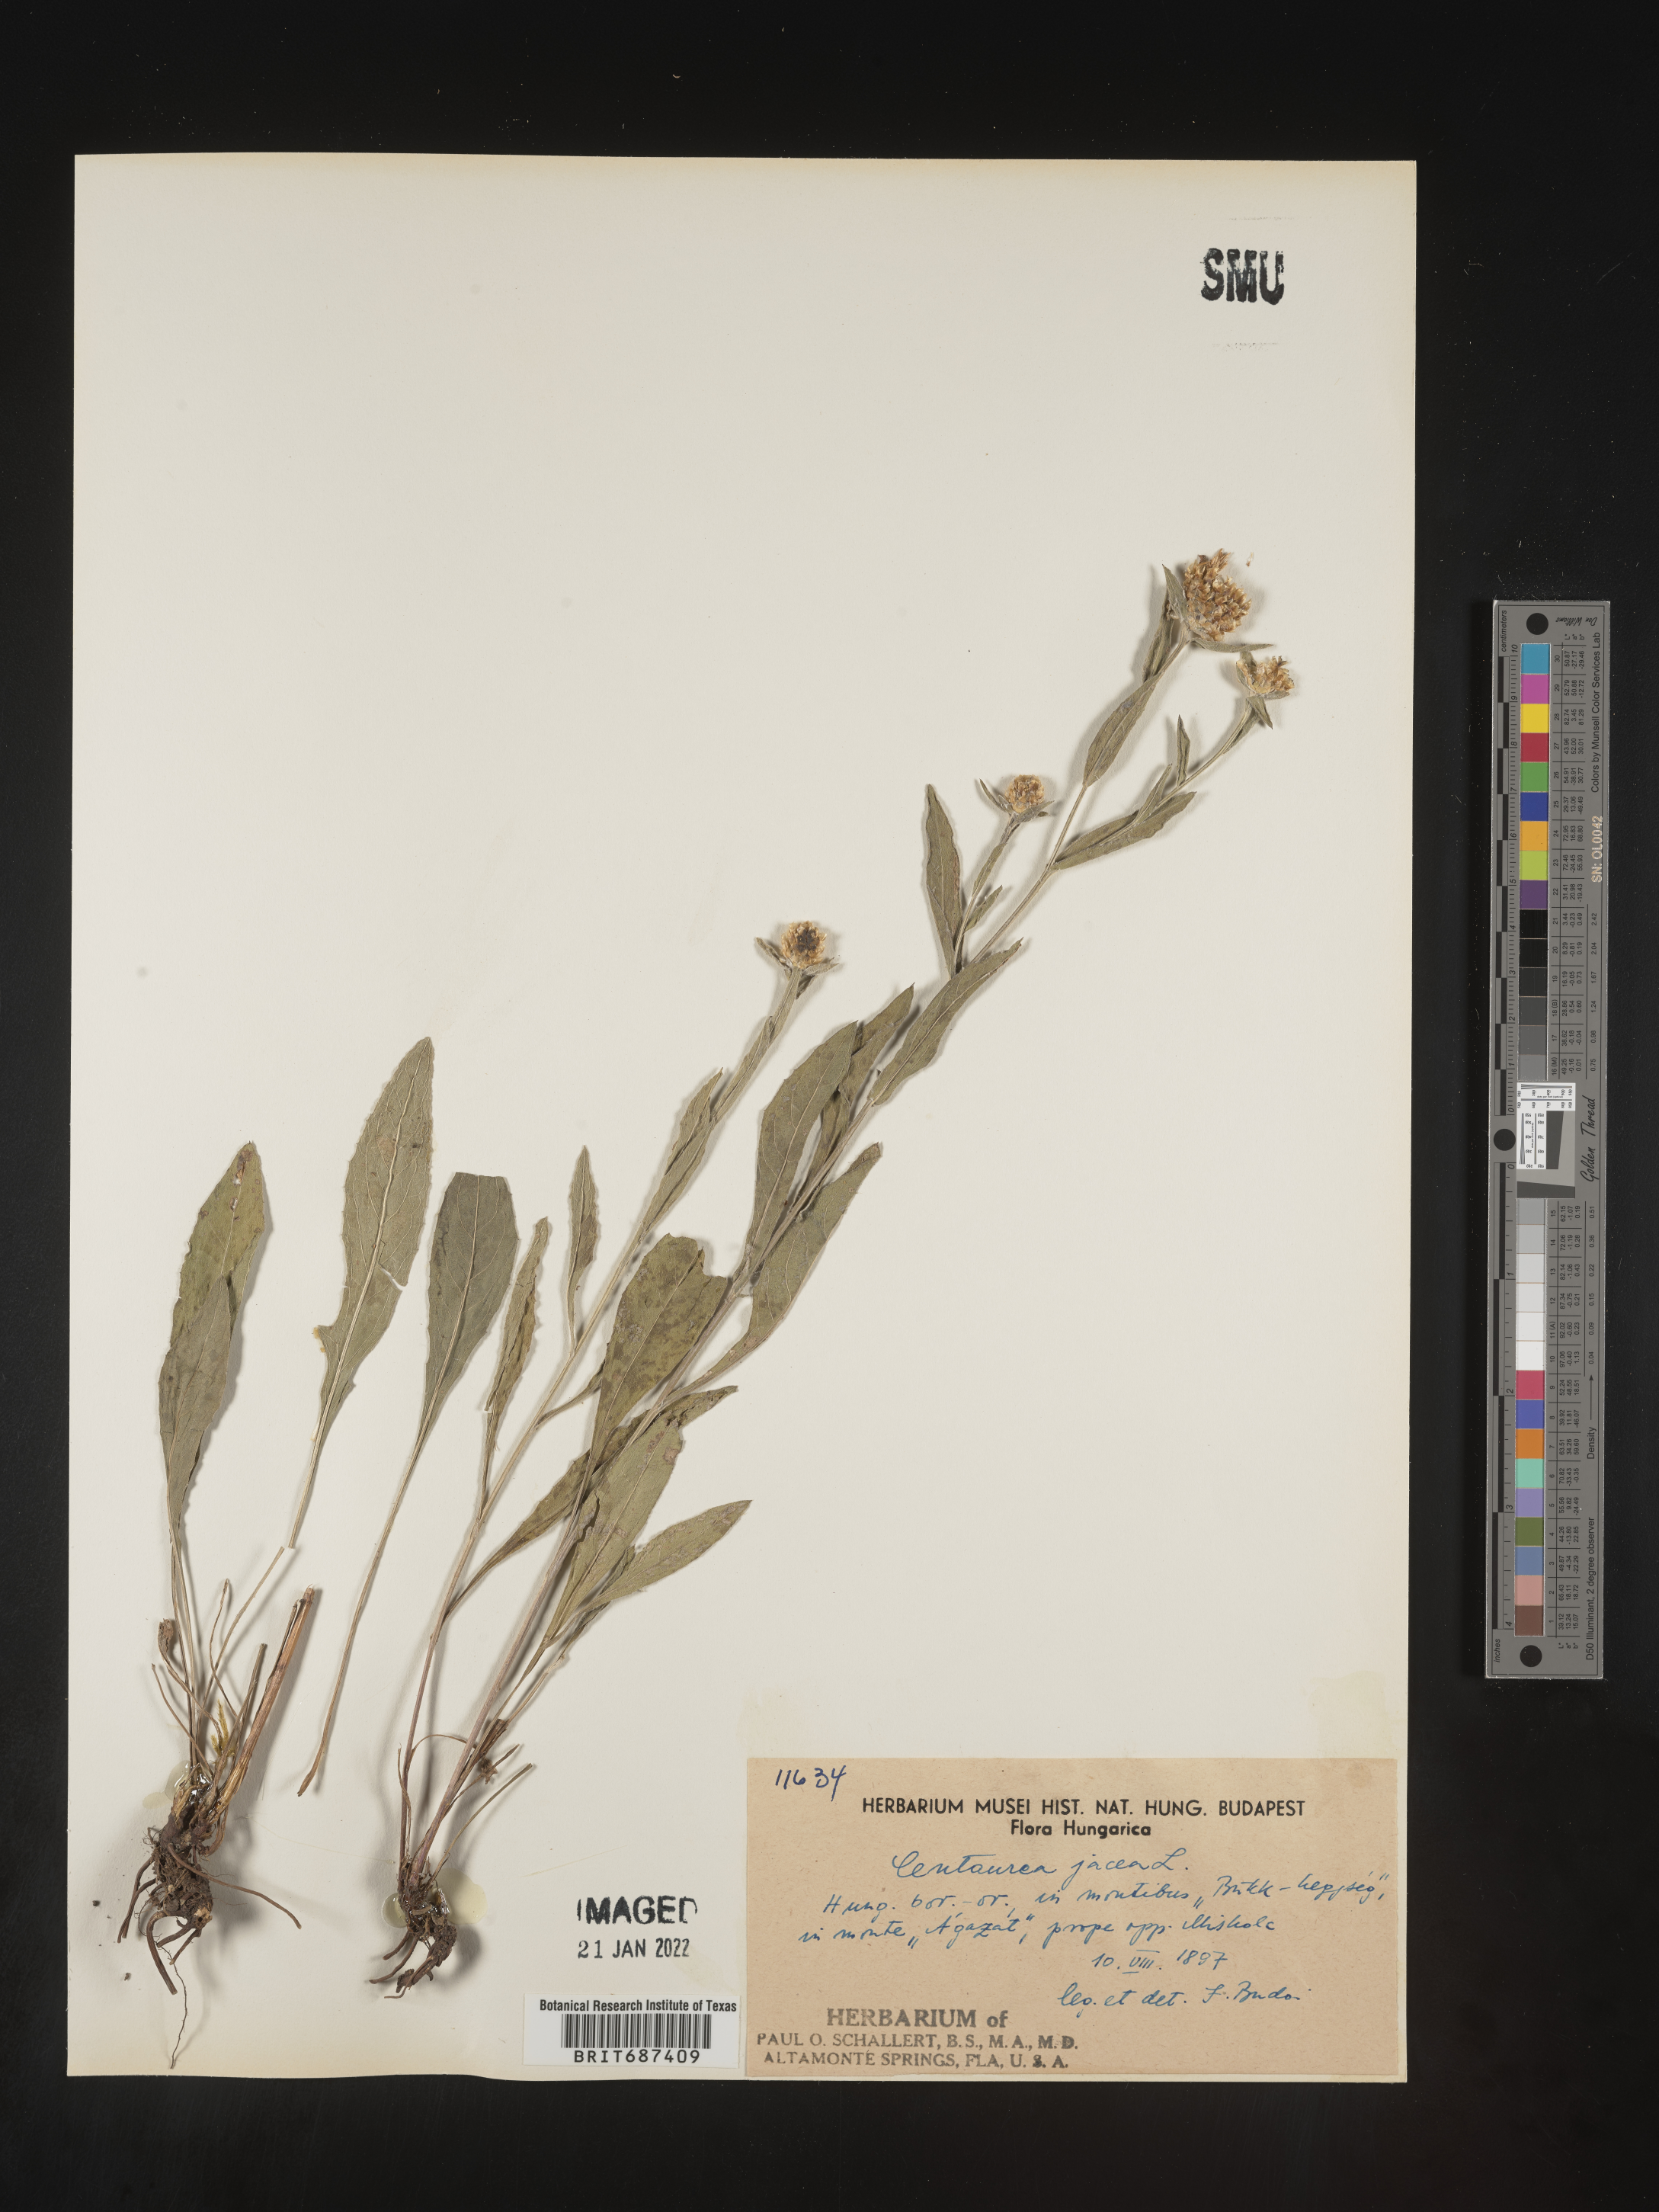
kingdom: Plantae
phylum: Tracheophyta
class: Magnoliopsida
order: Asterales
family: Asteraceae
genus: Centaurea
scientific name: Centaurea jacea
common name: Brown knapweed
